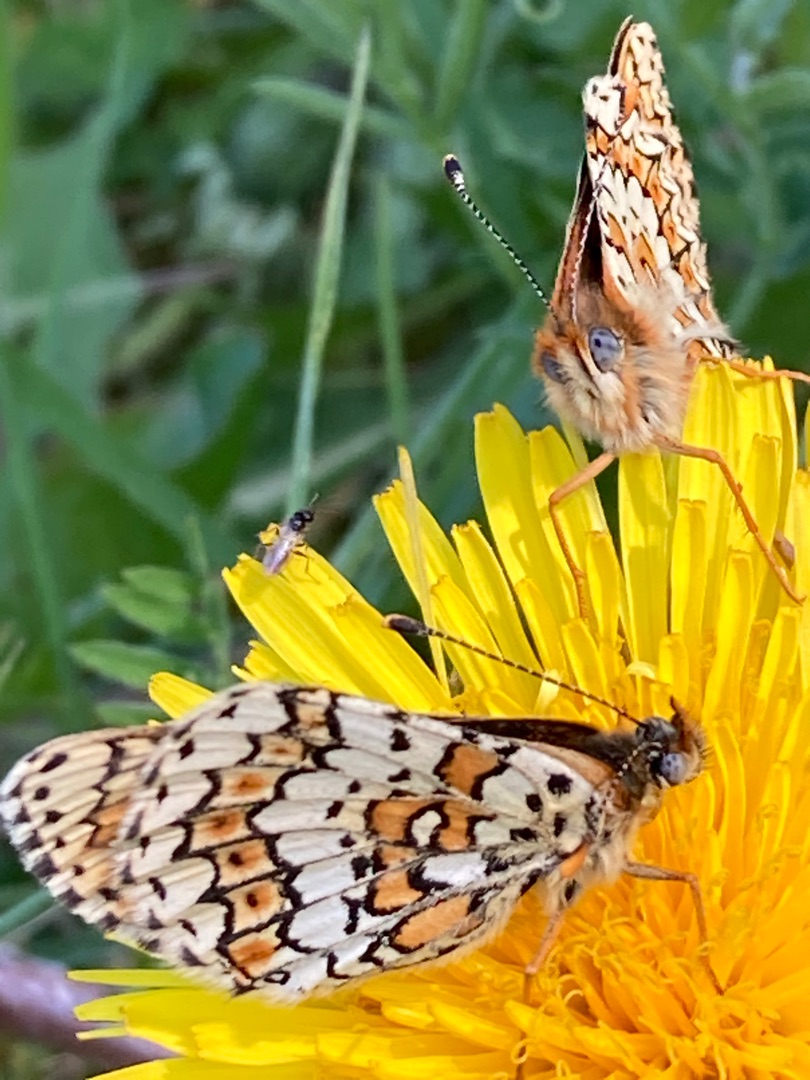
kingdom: Animalia
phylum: Arthropoda
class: Insecta
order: Lepidoptera
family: Nymphalidae
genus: Melitaea
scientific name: Melitaea cinxia
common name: Okkergul pletvinge
